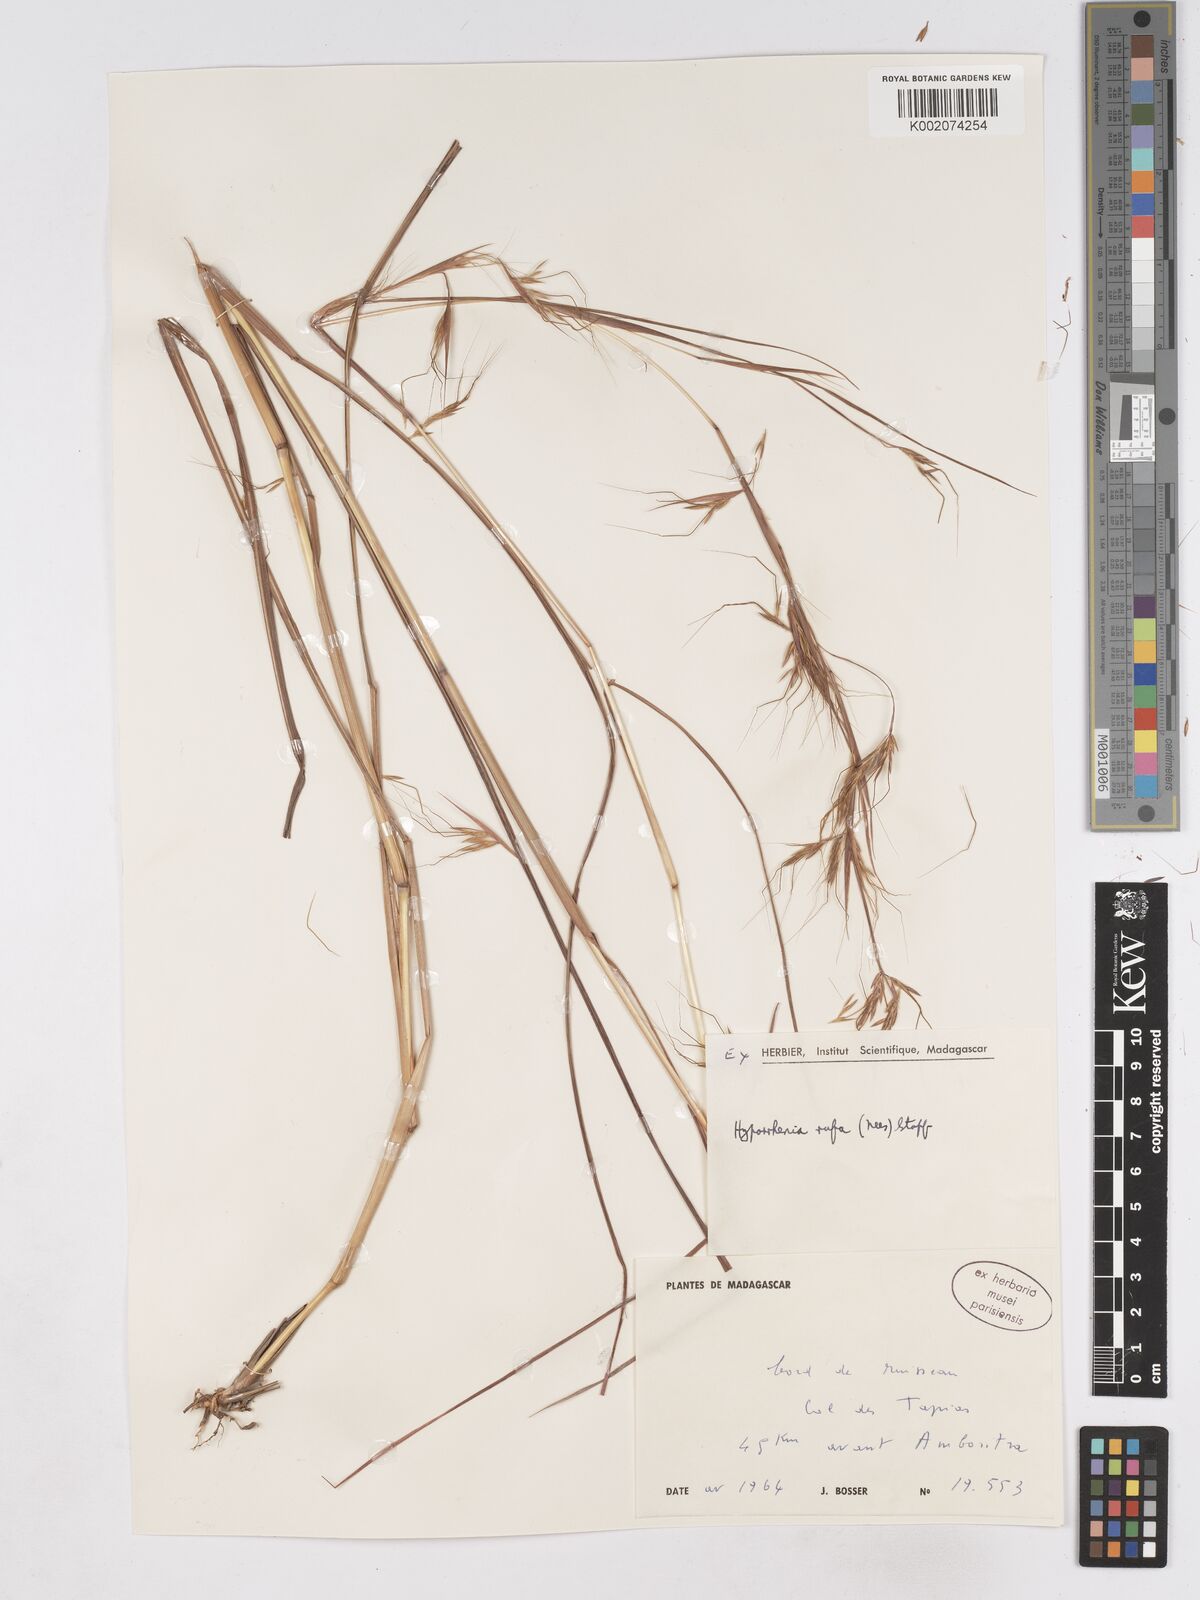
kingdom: Plantae
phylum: Tracheophyta
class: Liliopsida
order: Poales
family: Poaceae
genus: Hyparrhenia
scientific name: Hyparrhenia rufa
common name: Jaraguagrass
